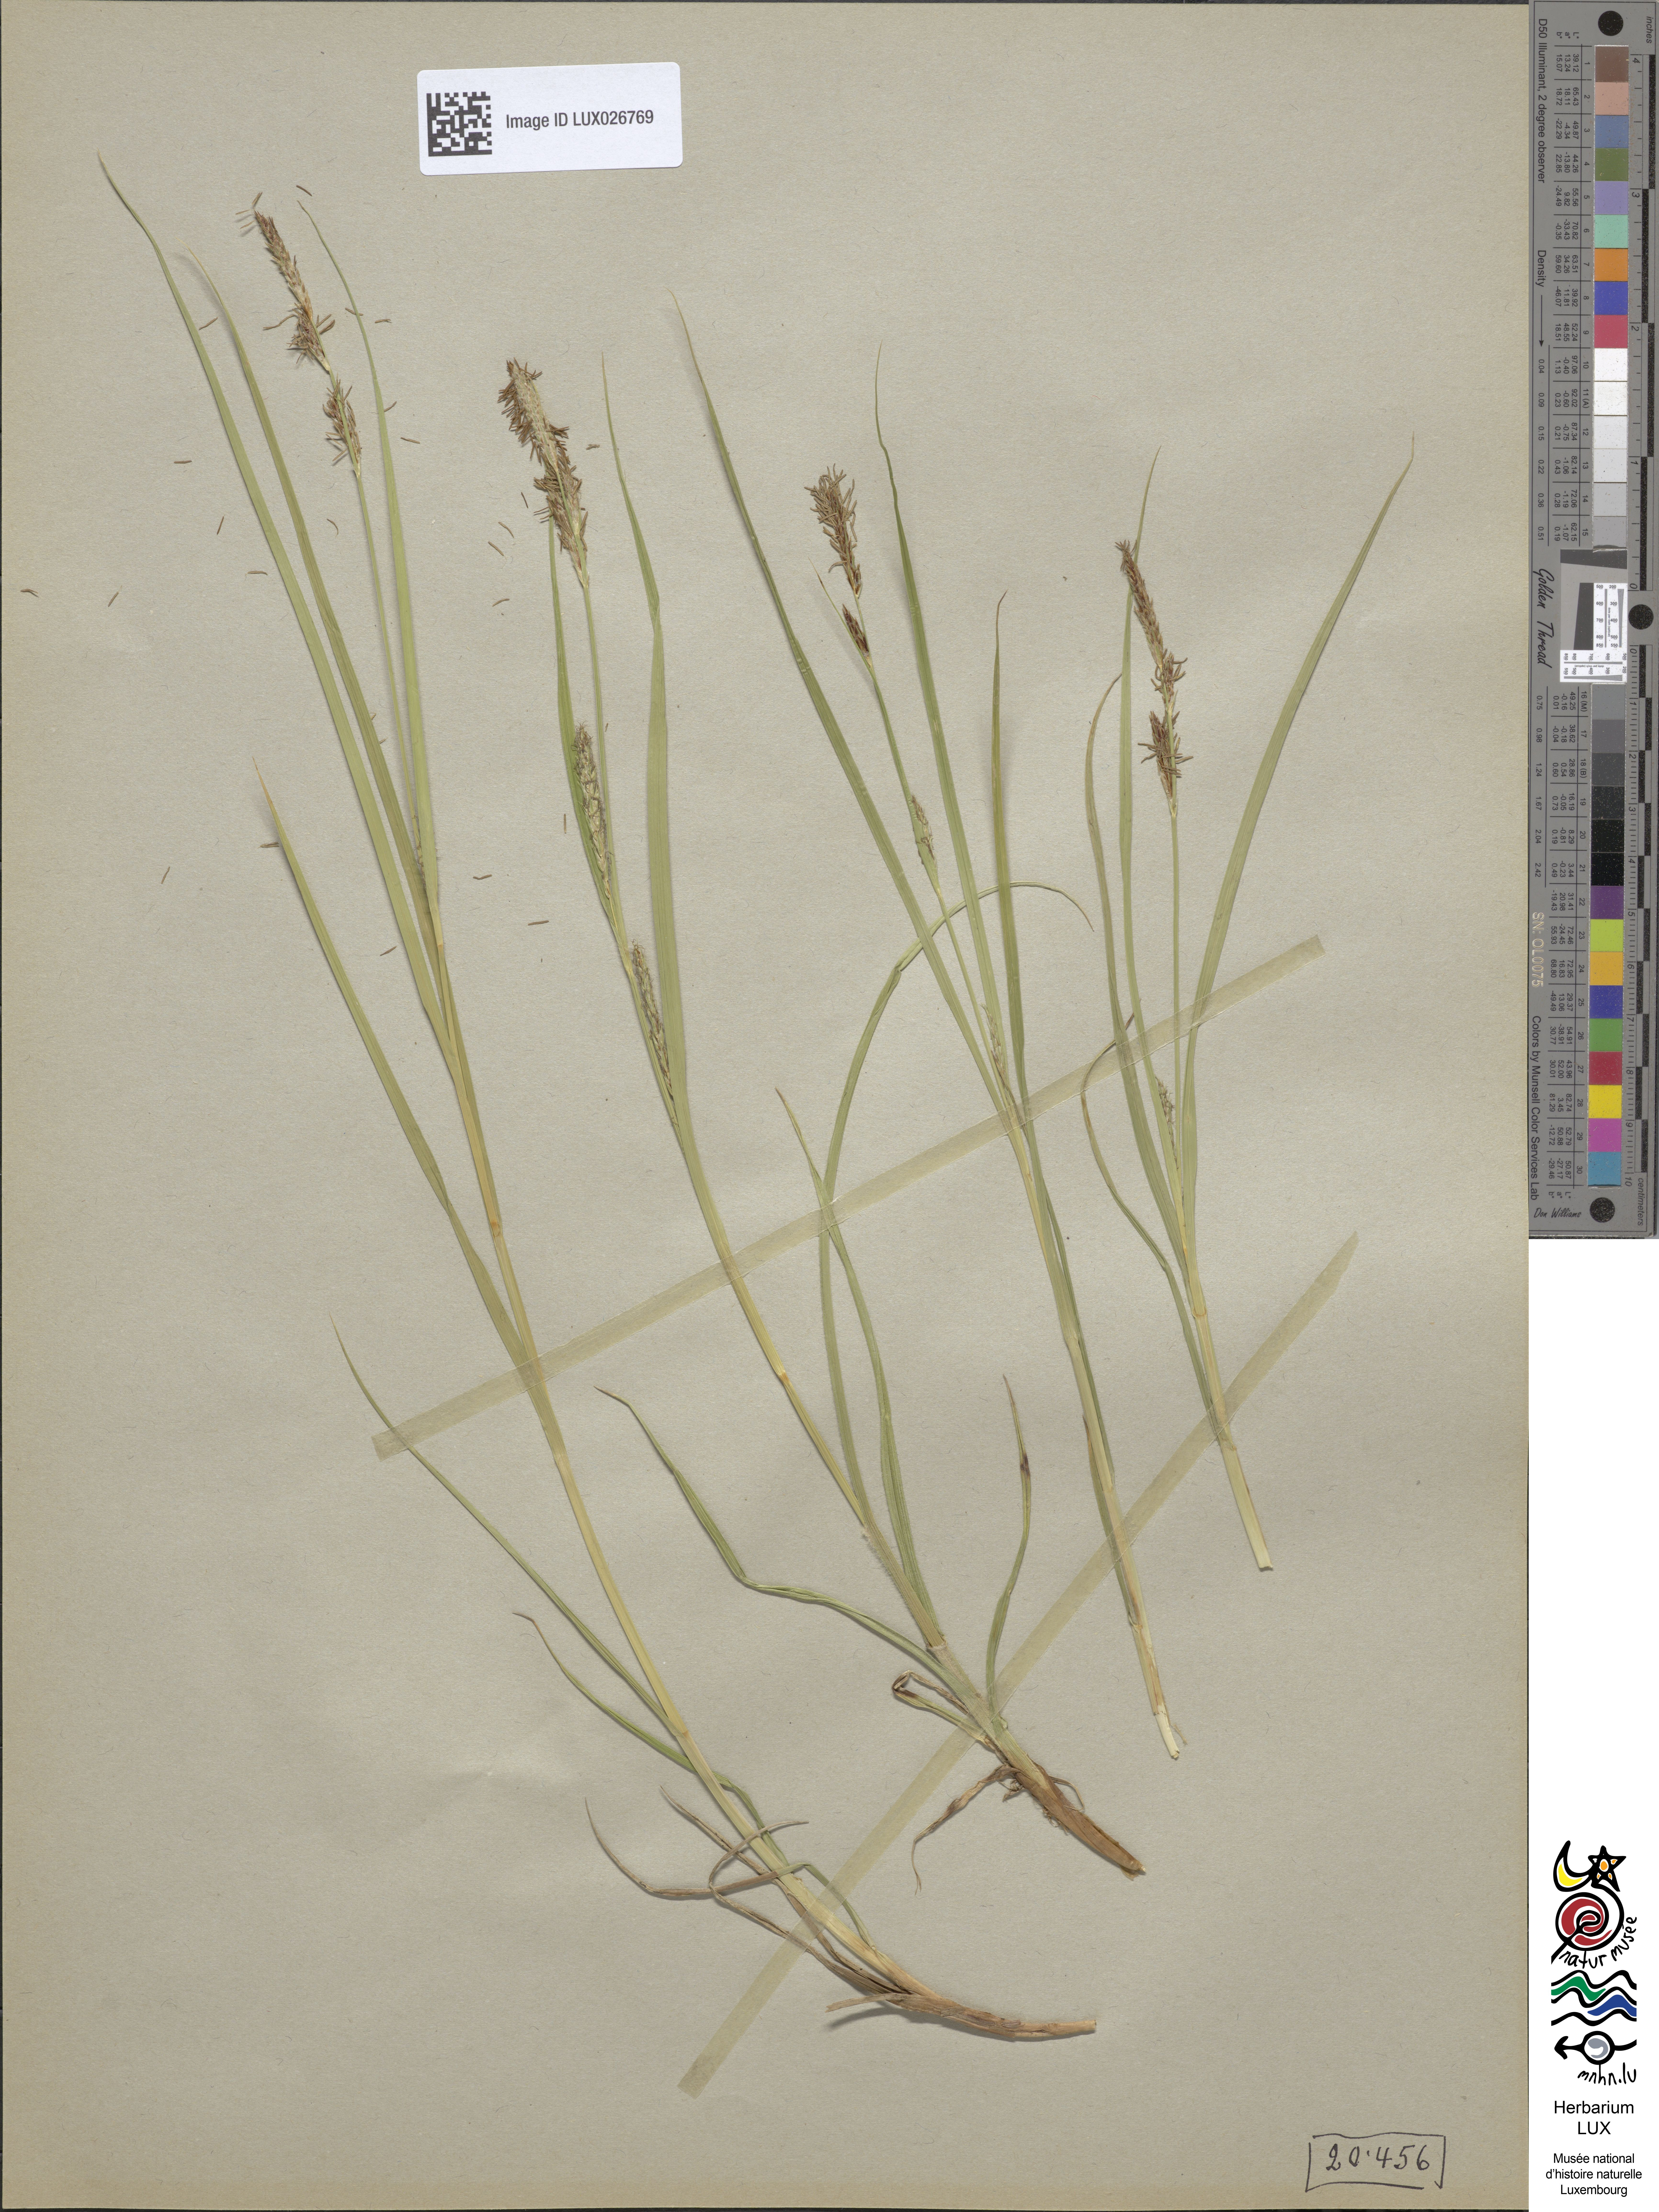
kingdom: Plantae
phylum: Tracheophyta
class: Liliopsida
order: Poales
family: Cyperaceae
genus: Carex
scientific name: Carex hirta
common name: Hairy sedge
